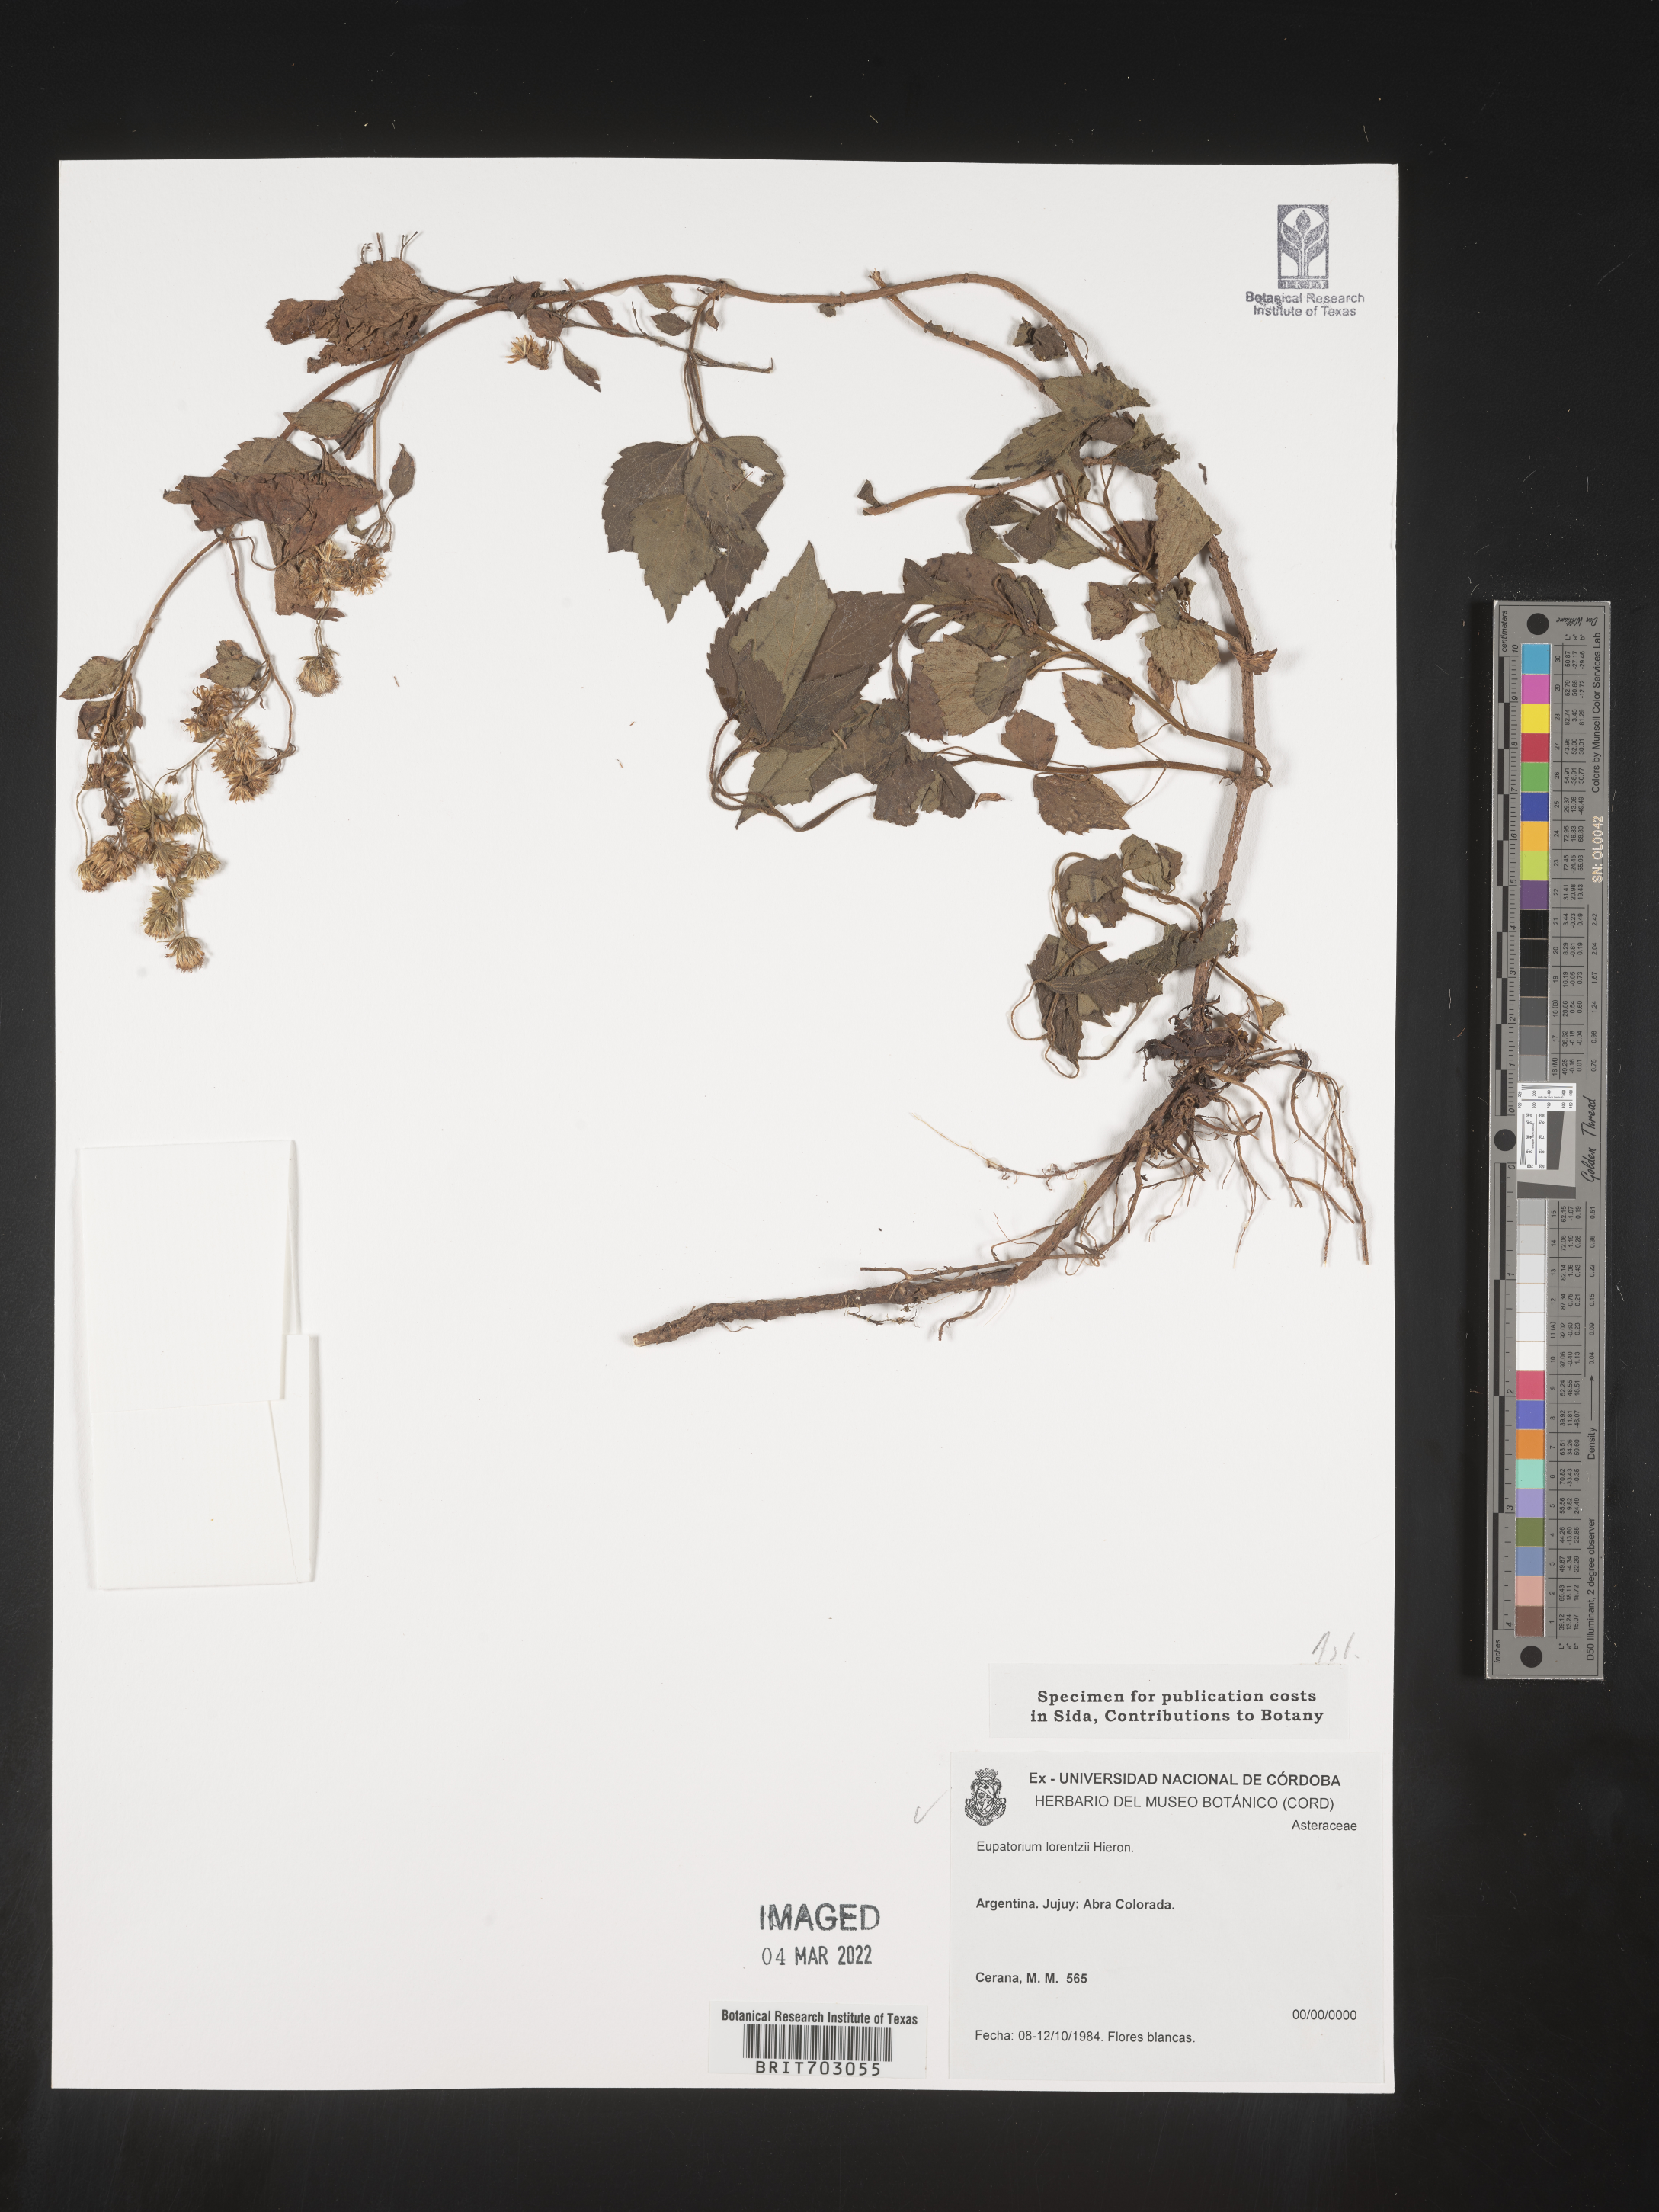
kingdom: Plantae
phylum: Tracheophyta
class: Magnoliopsida
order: Asterales
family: Asteraceae
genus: Eupatorium
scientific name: Eupatorium
